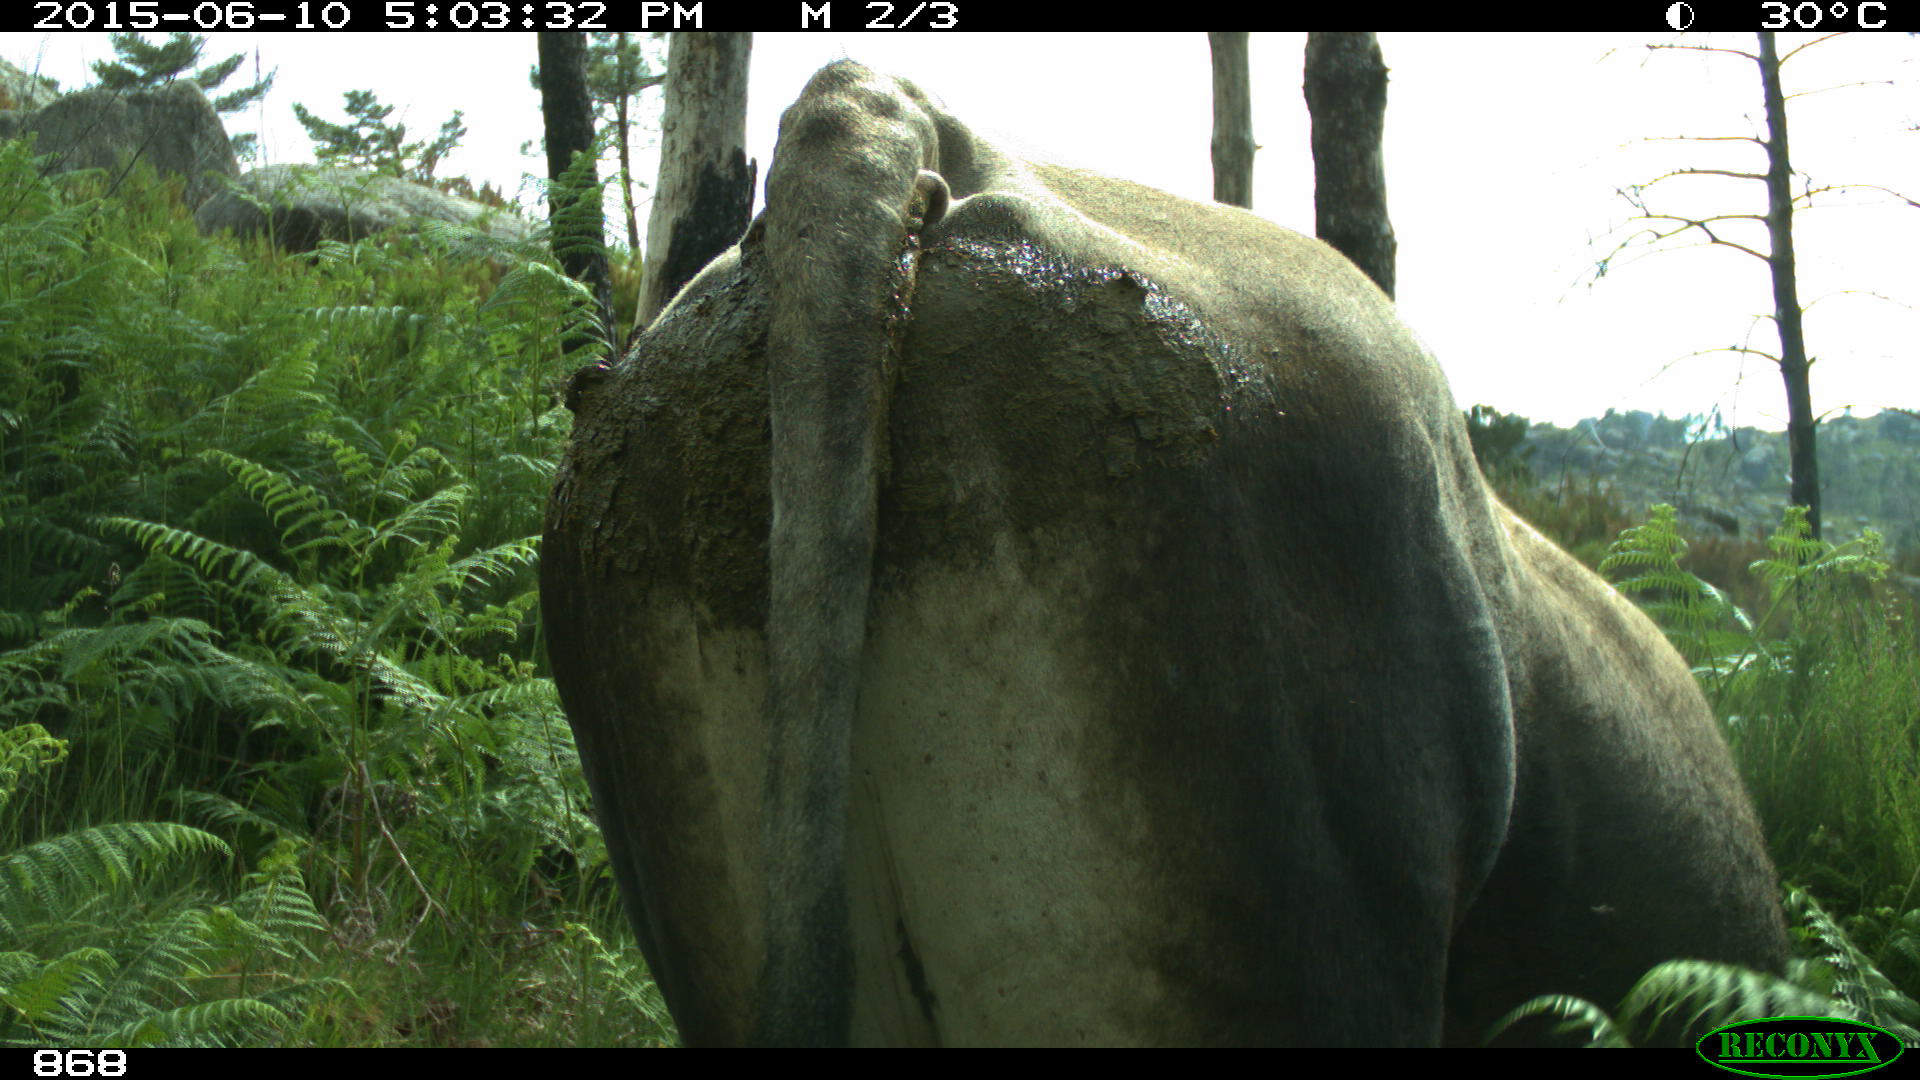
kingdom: Animalia
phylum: Chordata
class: Mammalia
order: Artiodactyla
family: Bovidae
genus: Bos
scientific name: Bos taurus
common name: Domesticated cattle
